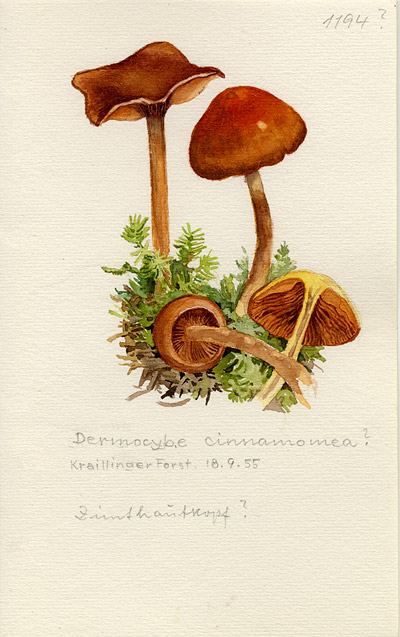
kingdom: Fungi
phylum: Basidiomycota
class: Agaricomycetes
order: Agaricales
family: Cortinariaceae
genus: Cortinarius
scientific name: Cortinarius cinnamomeus
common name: Cinnamon webcap
